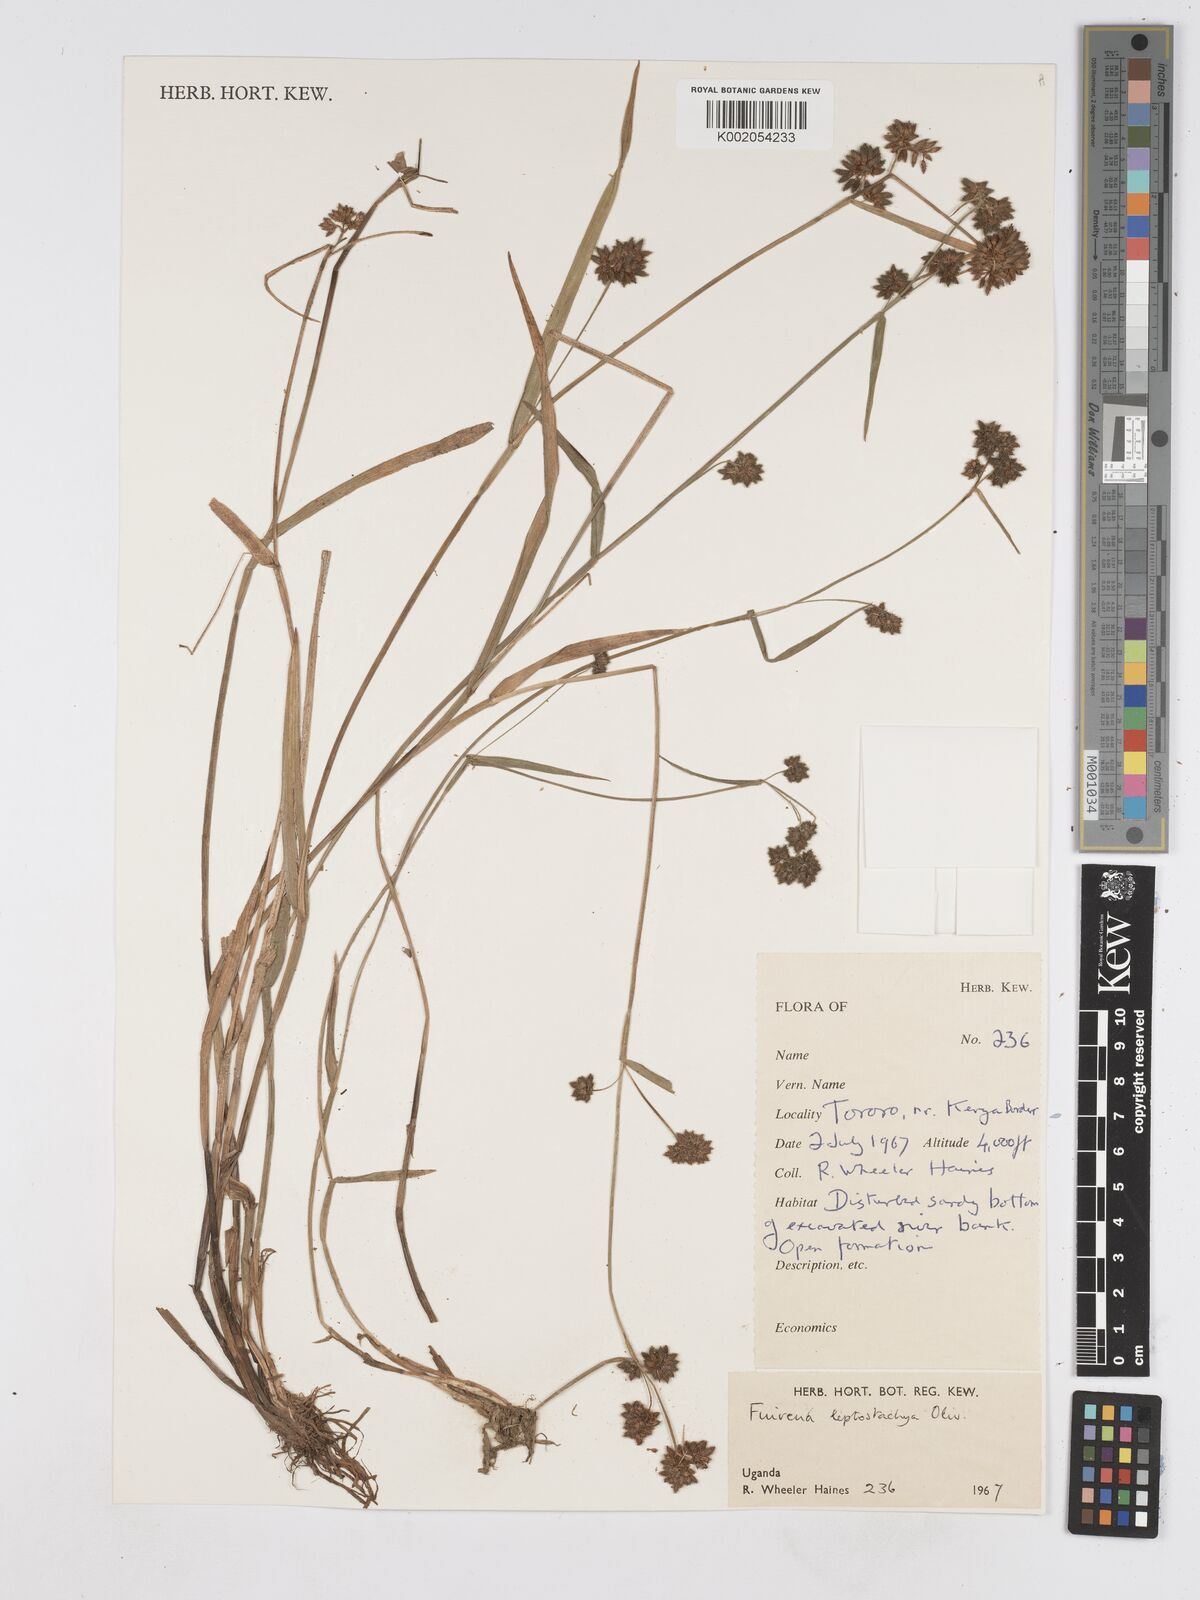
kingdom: Plantae
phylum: Tracheophyta
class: Liliopsida
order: Poales
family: Cyperaceae
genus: Fuirena
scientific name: Fuirena leptostachya
